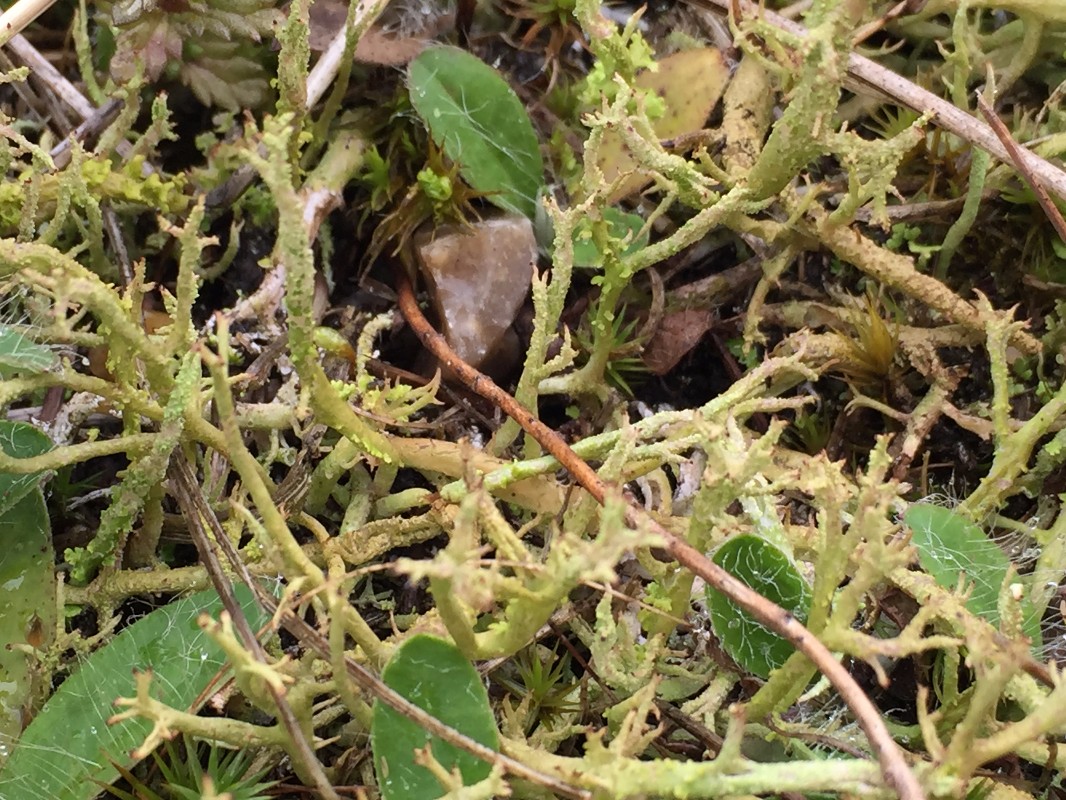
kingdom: Fungi
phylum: Ascomycota
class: Lecanoromycetes
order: Lecanorales
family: Cladoniaceae
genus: Cladonia
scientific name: Cladonia scabriuscula
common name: ru bægerlav
